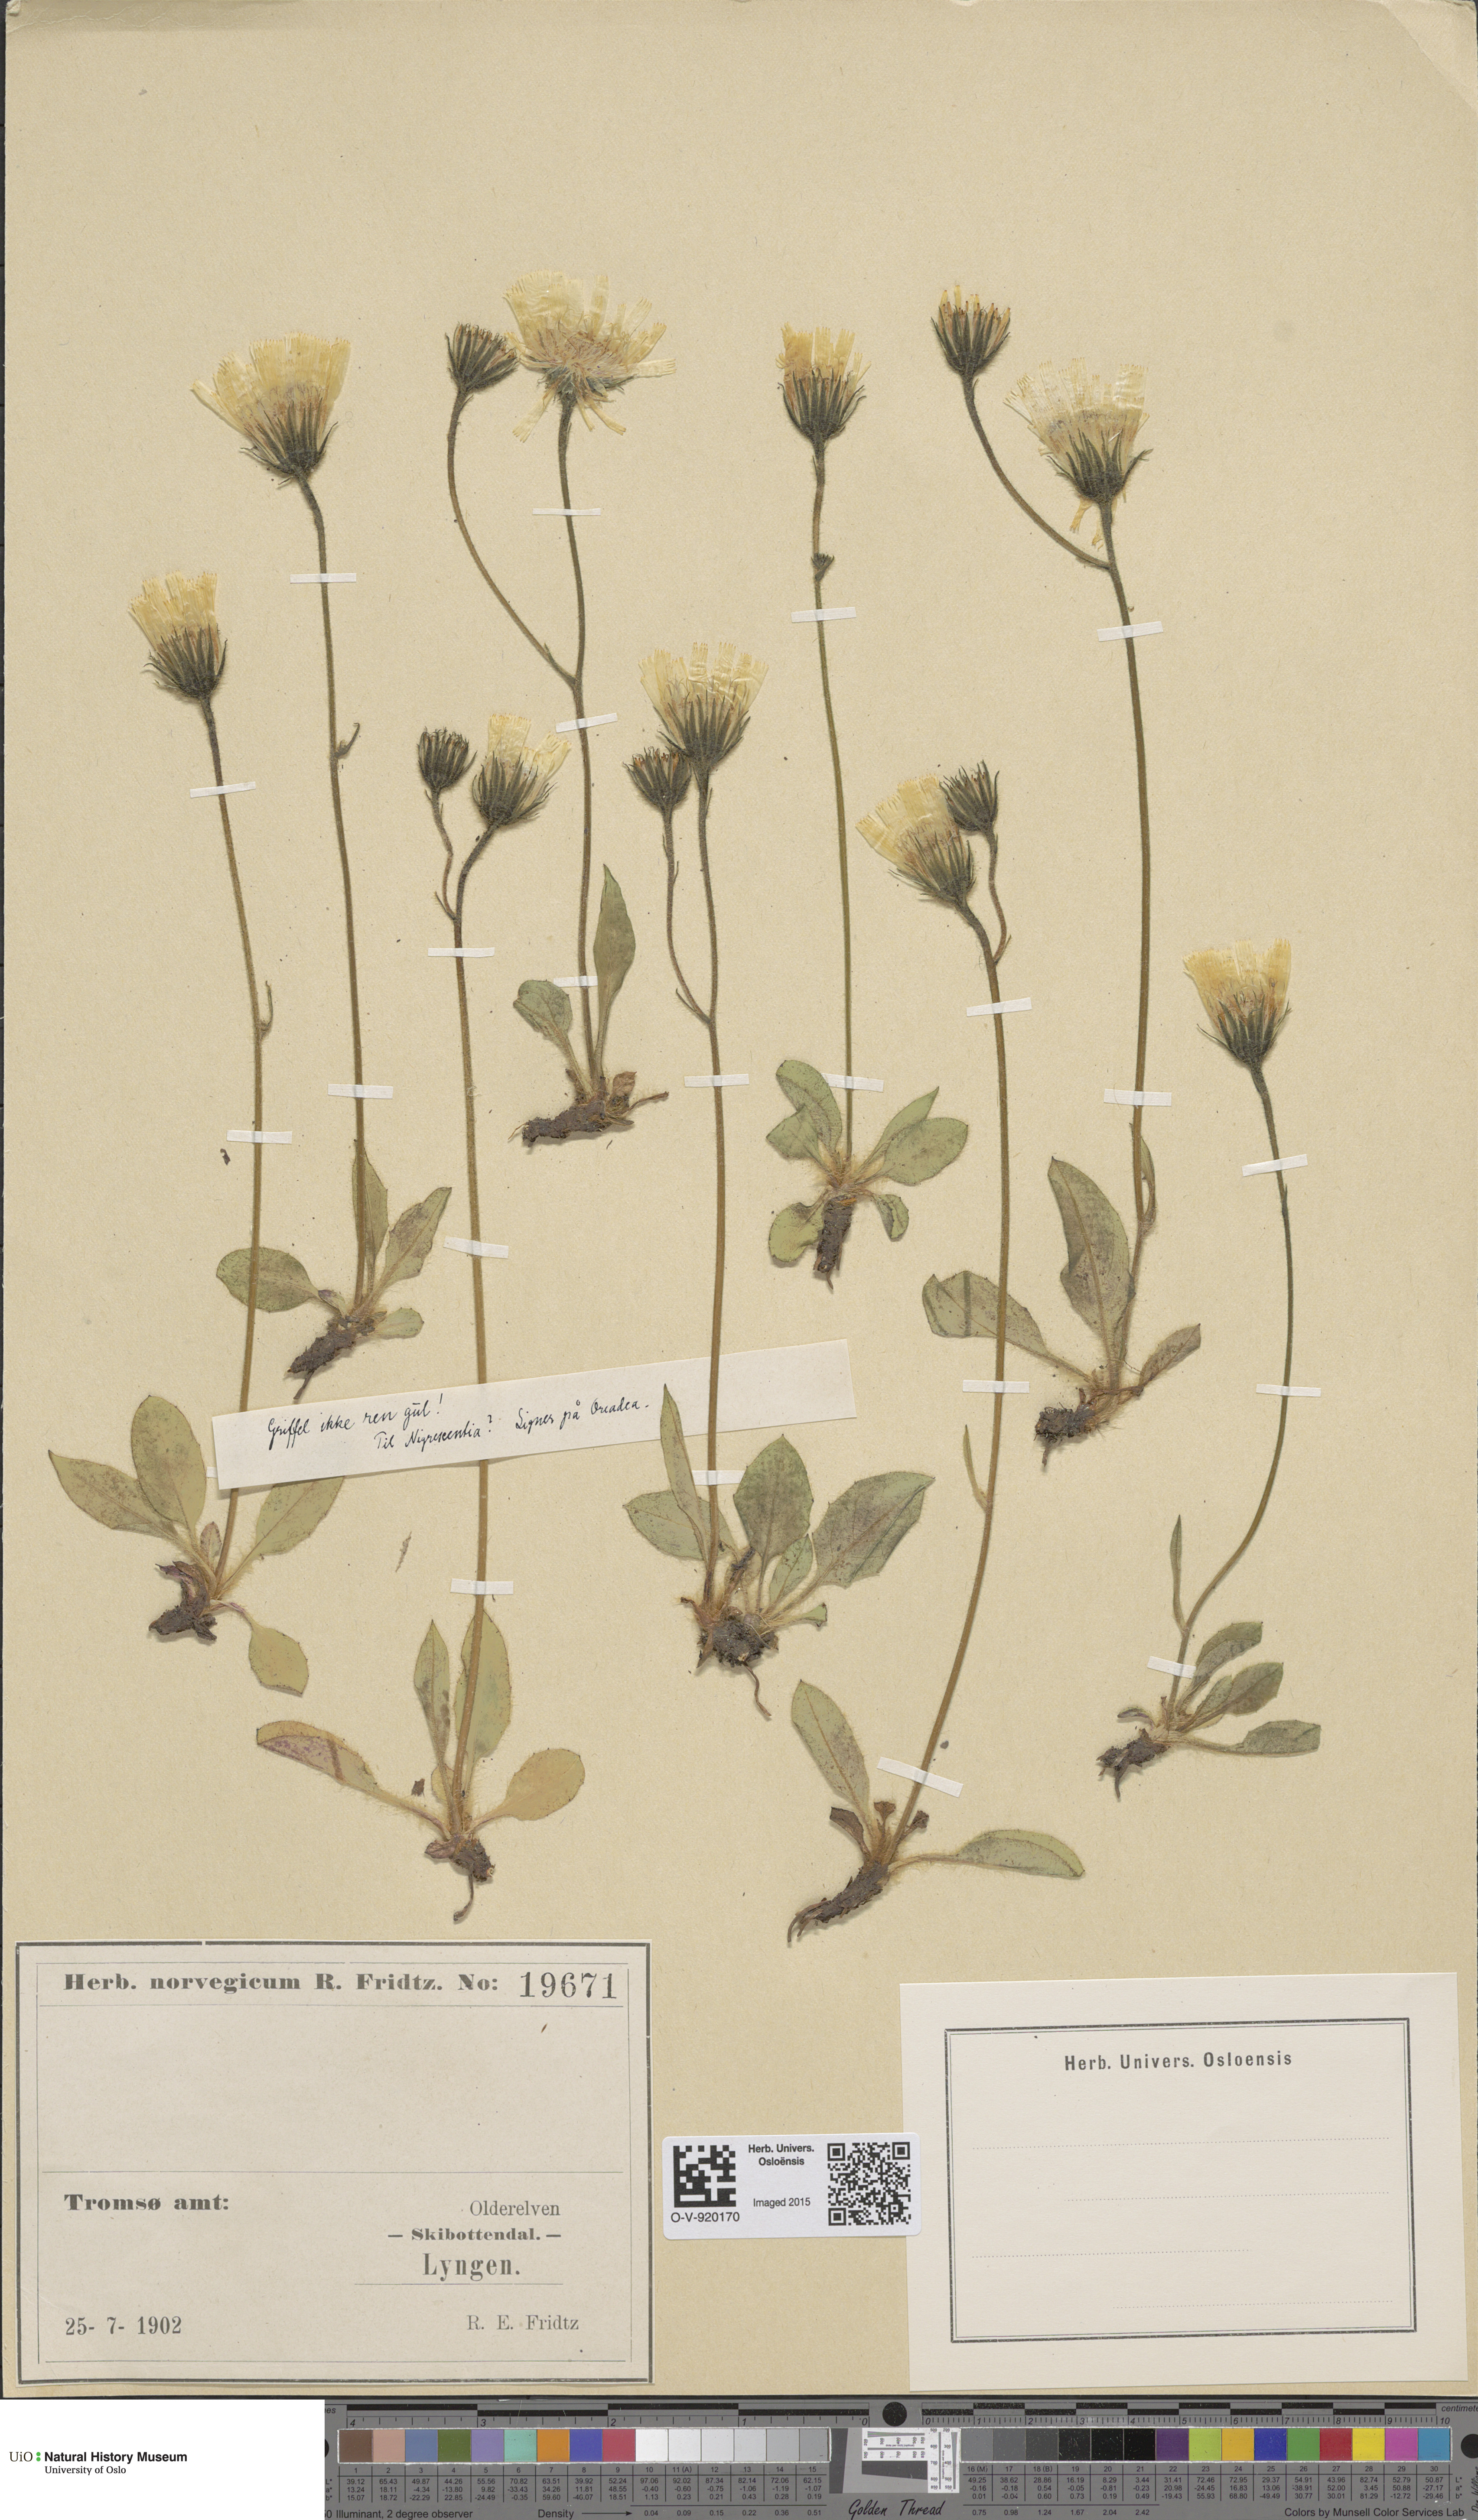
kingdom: Plantae
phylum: Tracheophyta
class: Magnoliopsida
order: Asterales
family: Asteraceae
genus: Hieracium
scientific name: Hieracium
